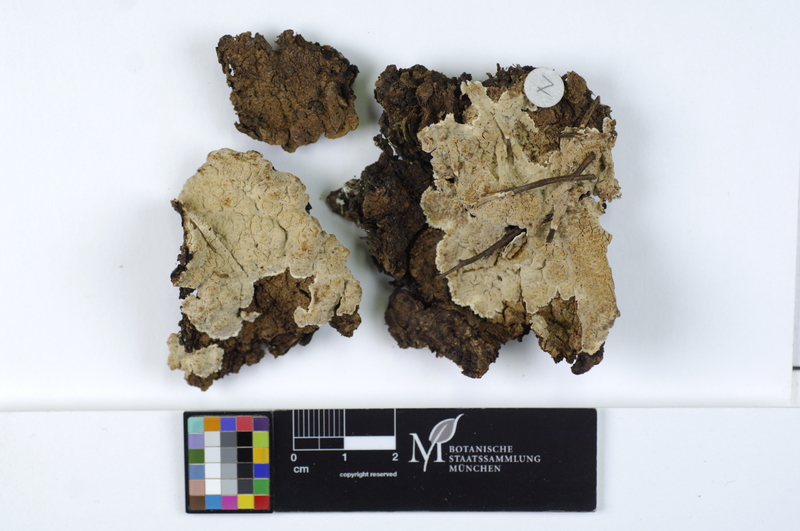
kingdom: Plantae
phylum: Tracheophyta
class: Pinopsida
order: Pinales
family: Pinaceae
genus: Picea
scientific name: Picea
